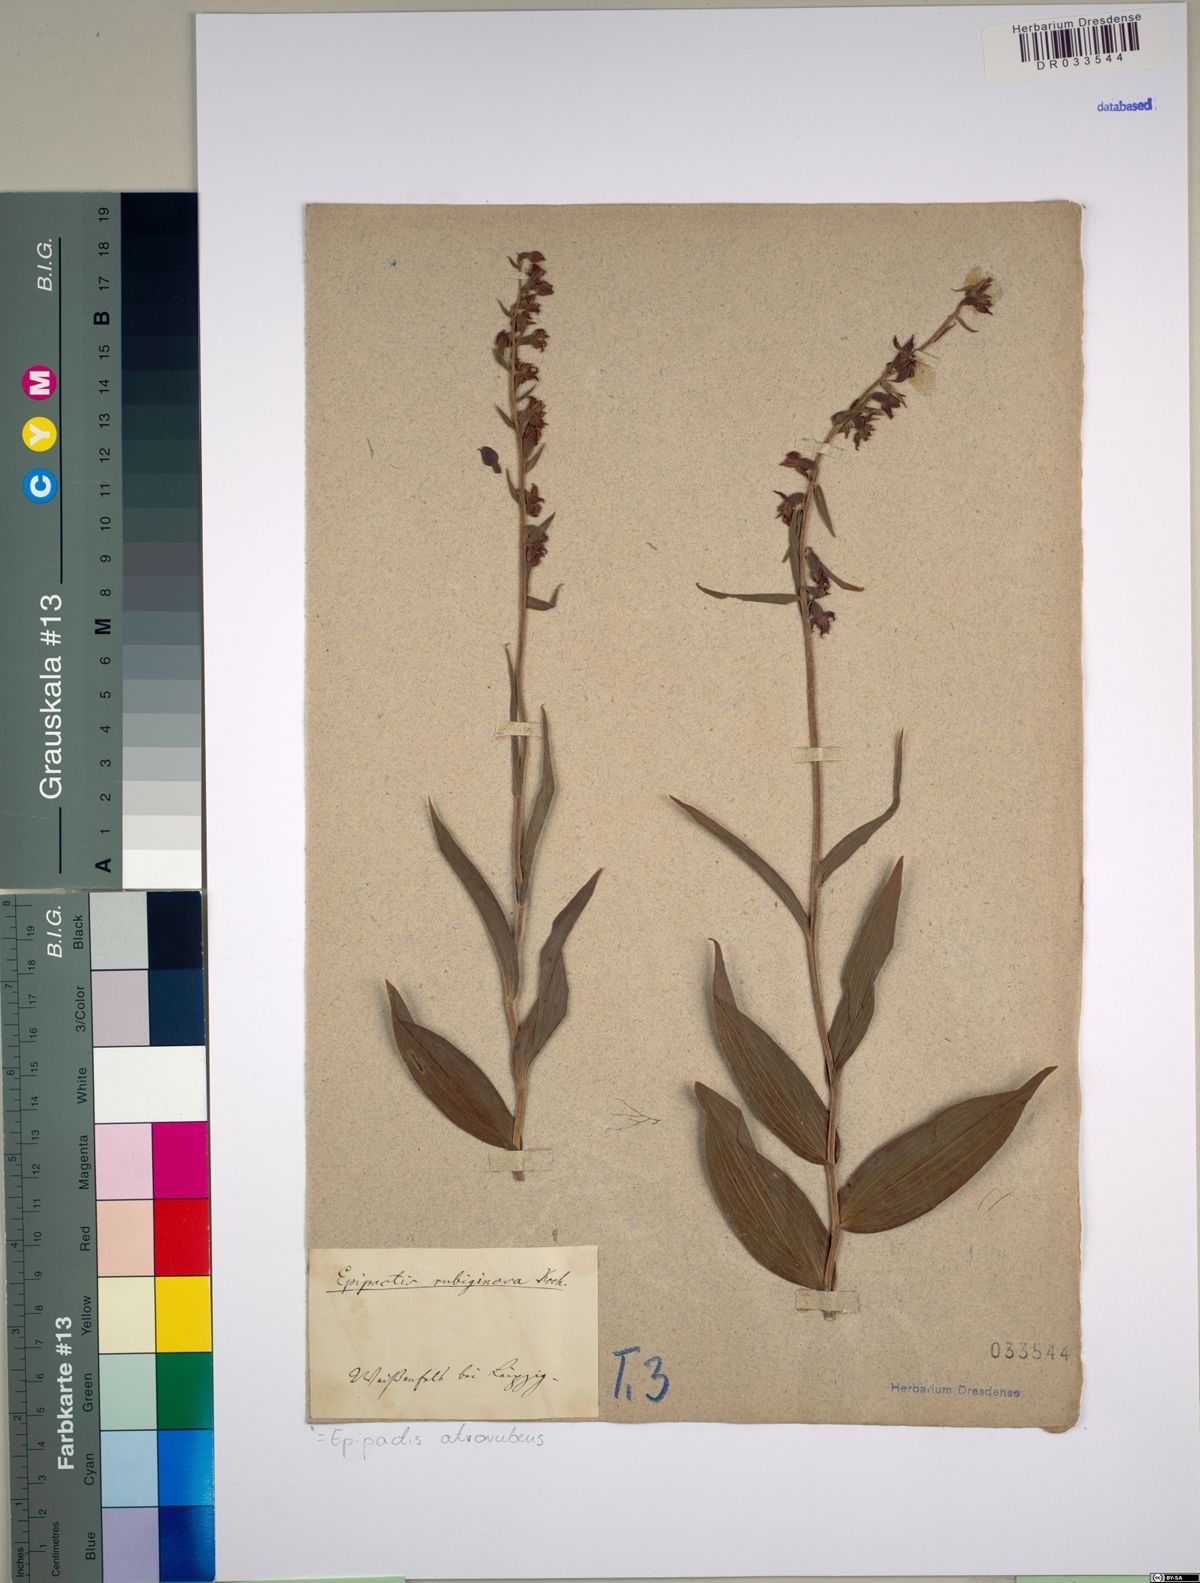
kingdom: Plantae
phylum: Tracheophyta
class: Liliopsida
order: Asparagales
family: Orchidaceae
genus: Epipactis
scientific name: Epipactis atrorubens
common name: Dark-red helleborine
